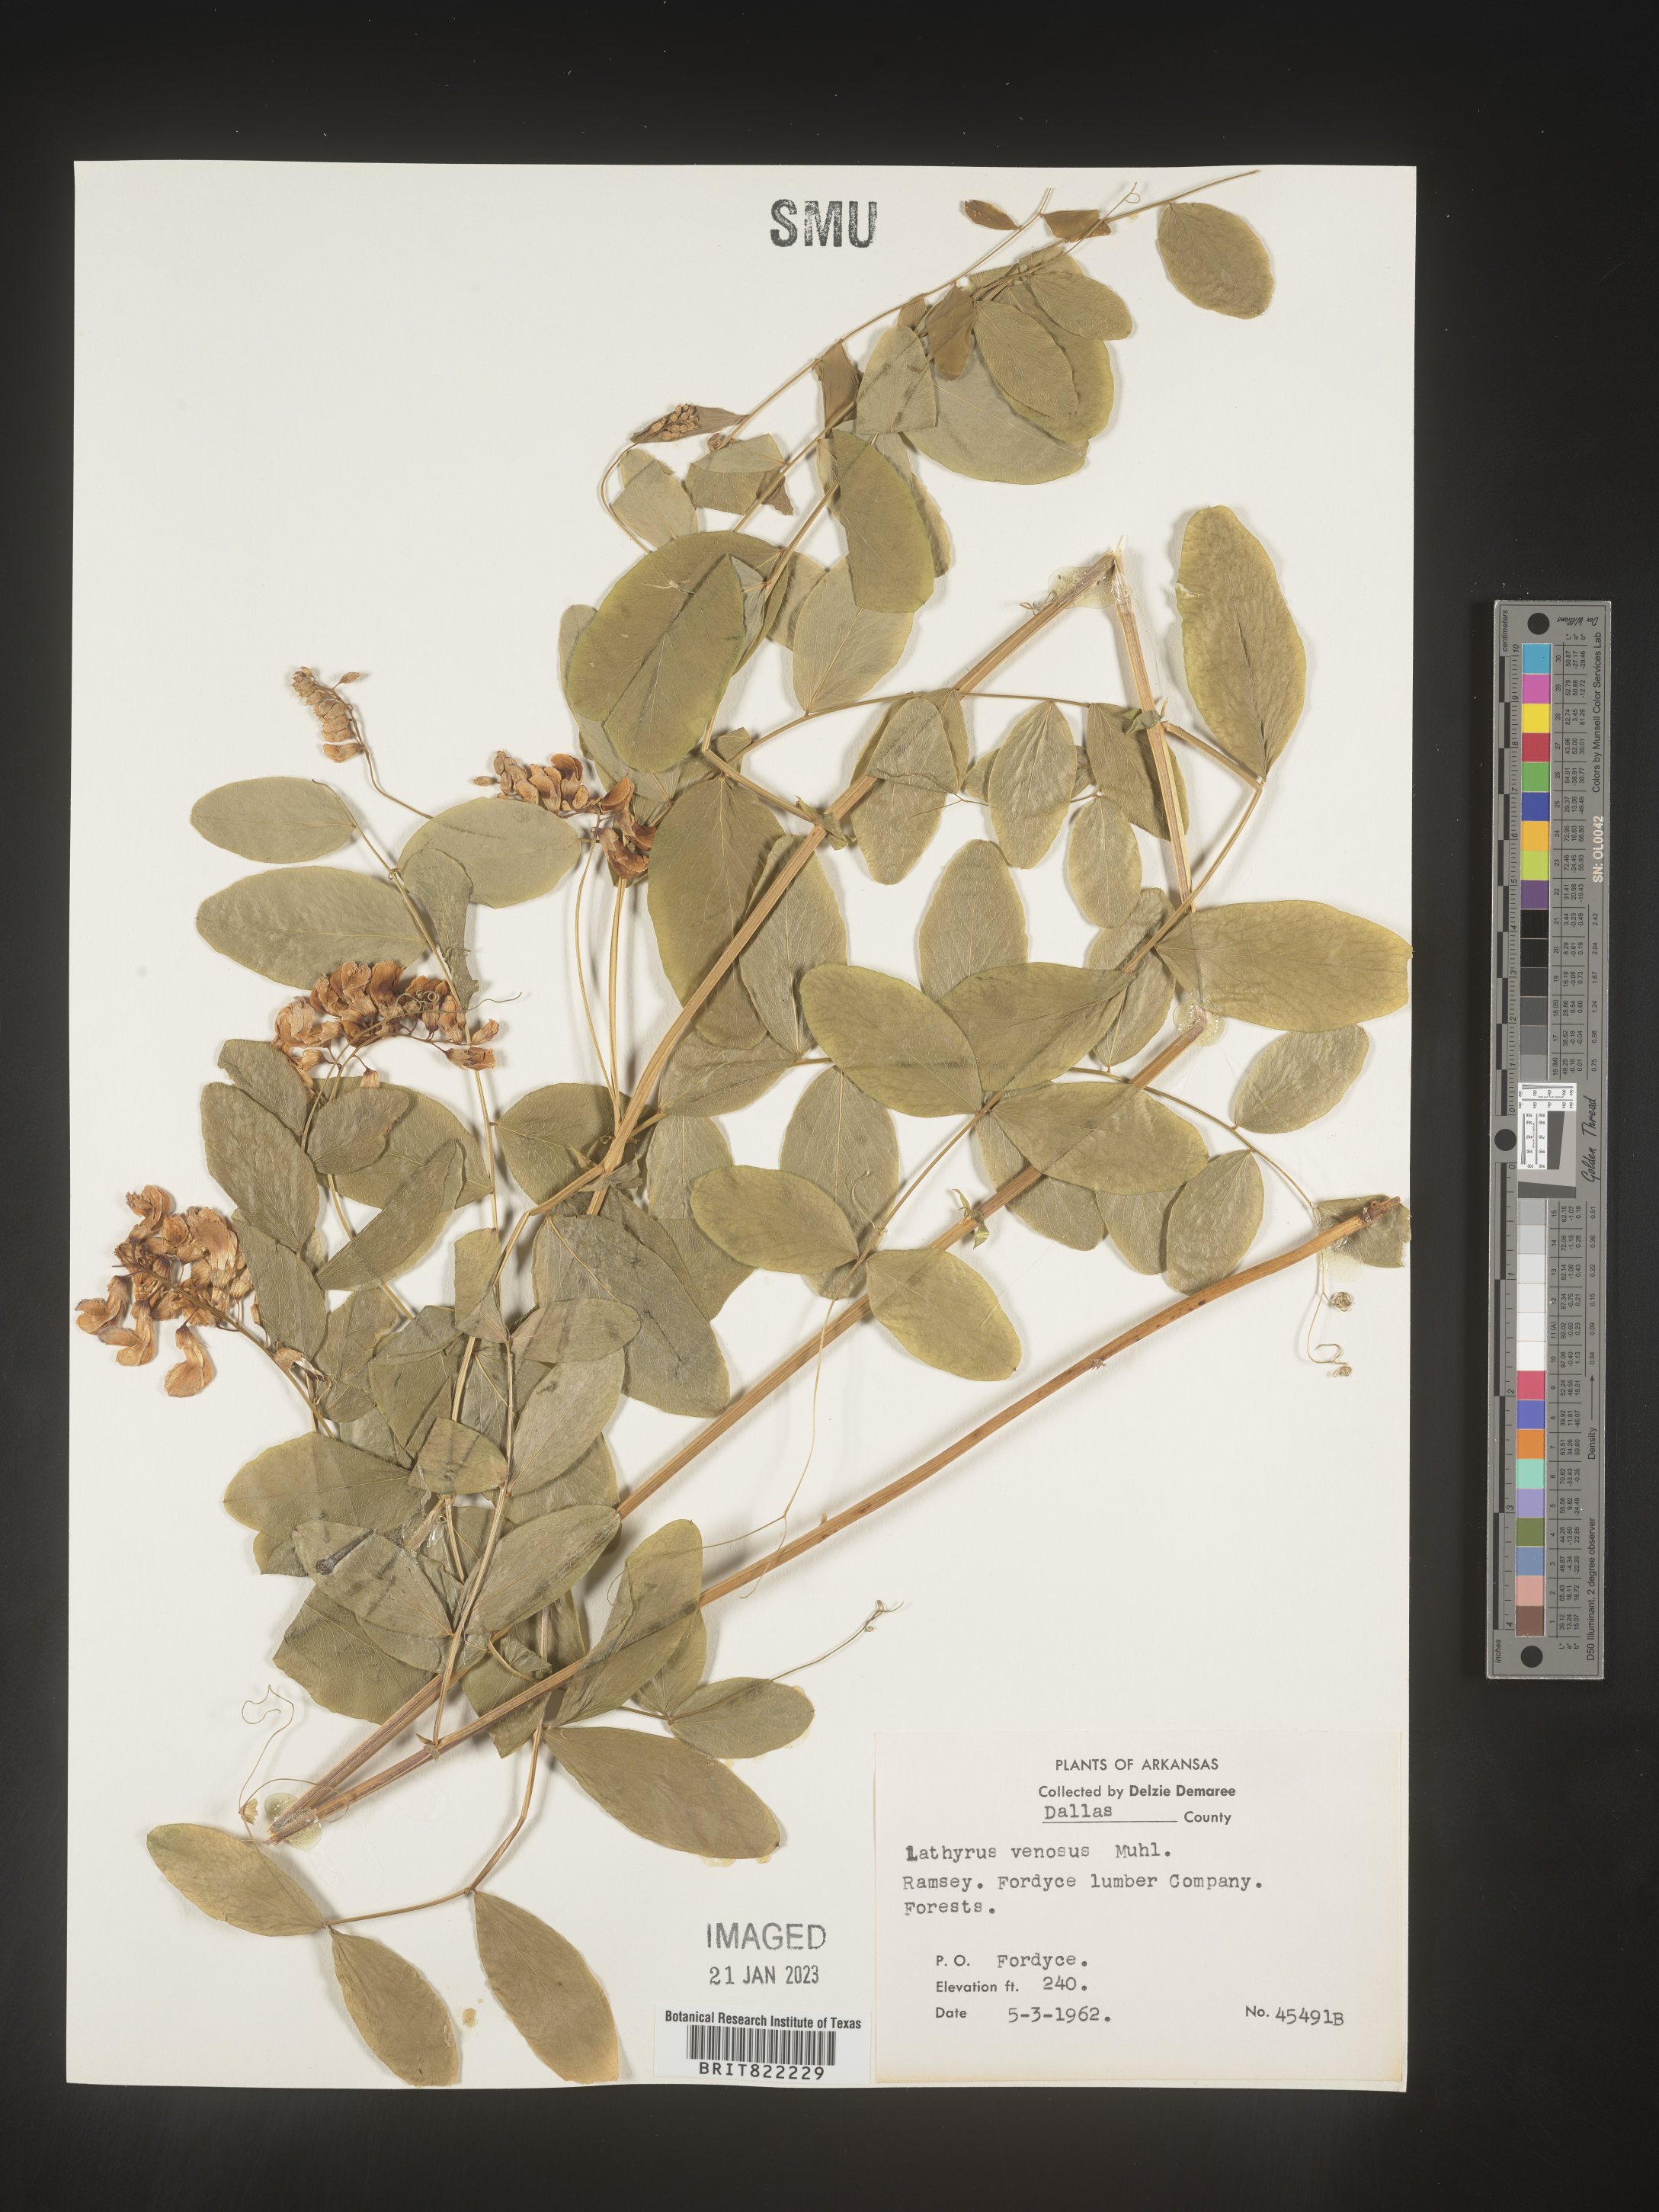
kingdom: Plantae
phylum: Tracheophyta
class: Magnoliopsida
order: Fabales
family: Fabaceae
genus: Lathyrus
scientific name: Lathyrus venosus
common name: Forest-pea
